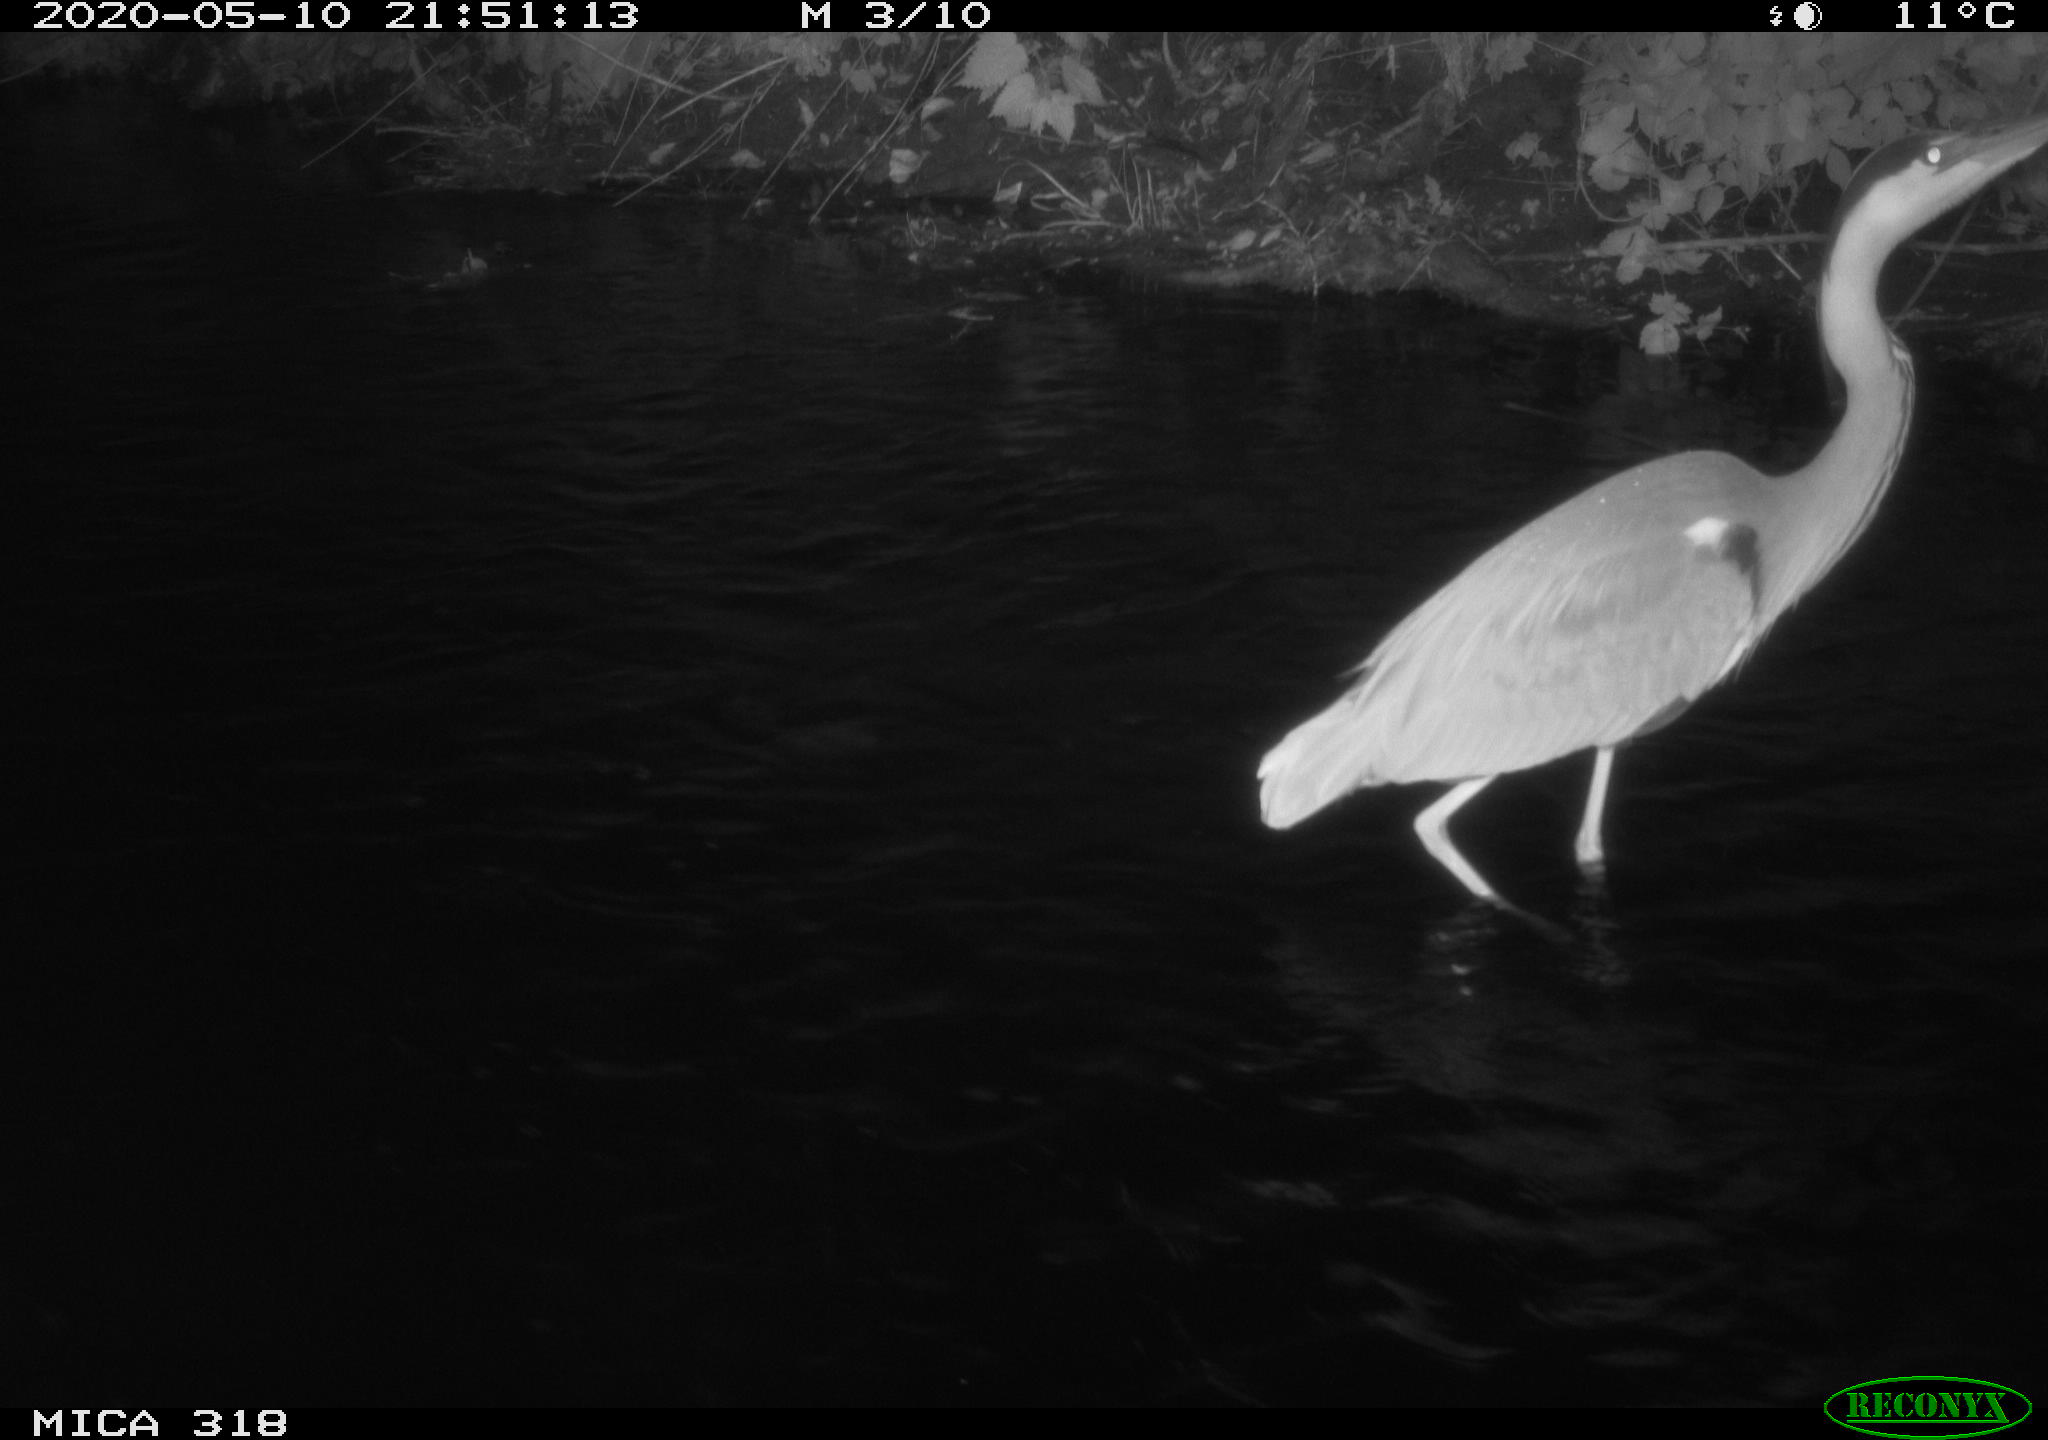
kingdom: Animalia
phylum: Chordata
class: Aves
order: Pelecaniformes
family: Ardeidae
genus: Ardea
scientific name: Ardea cinerea
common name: Grey heron
